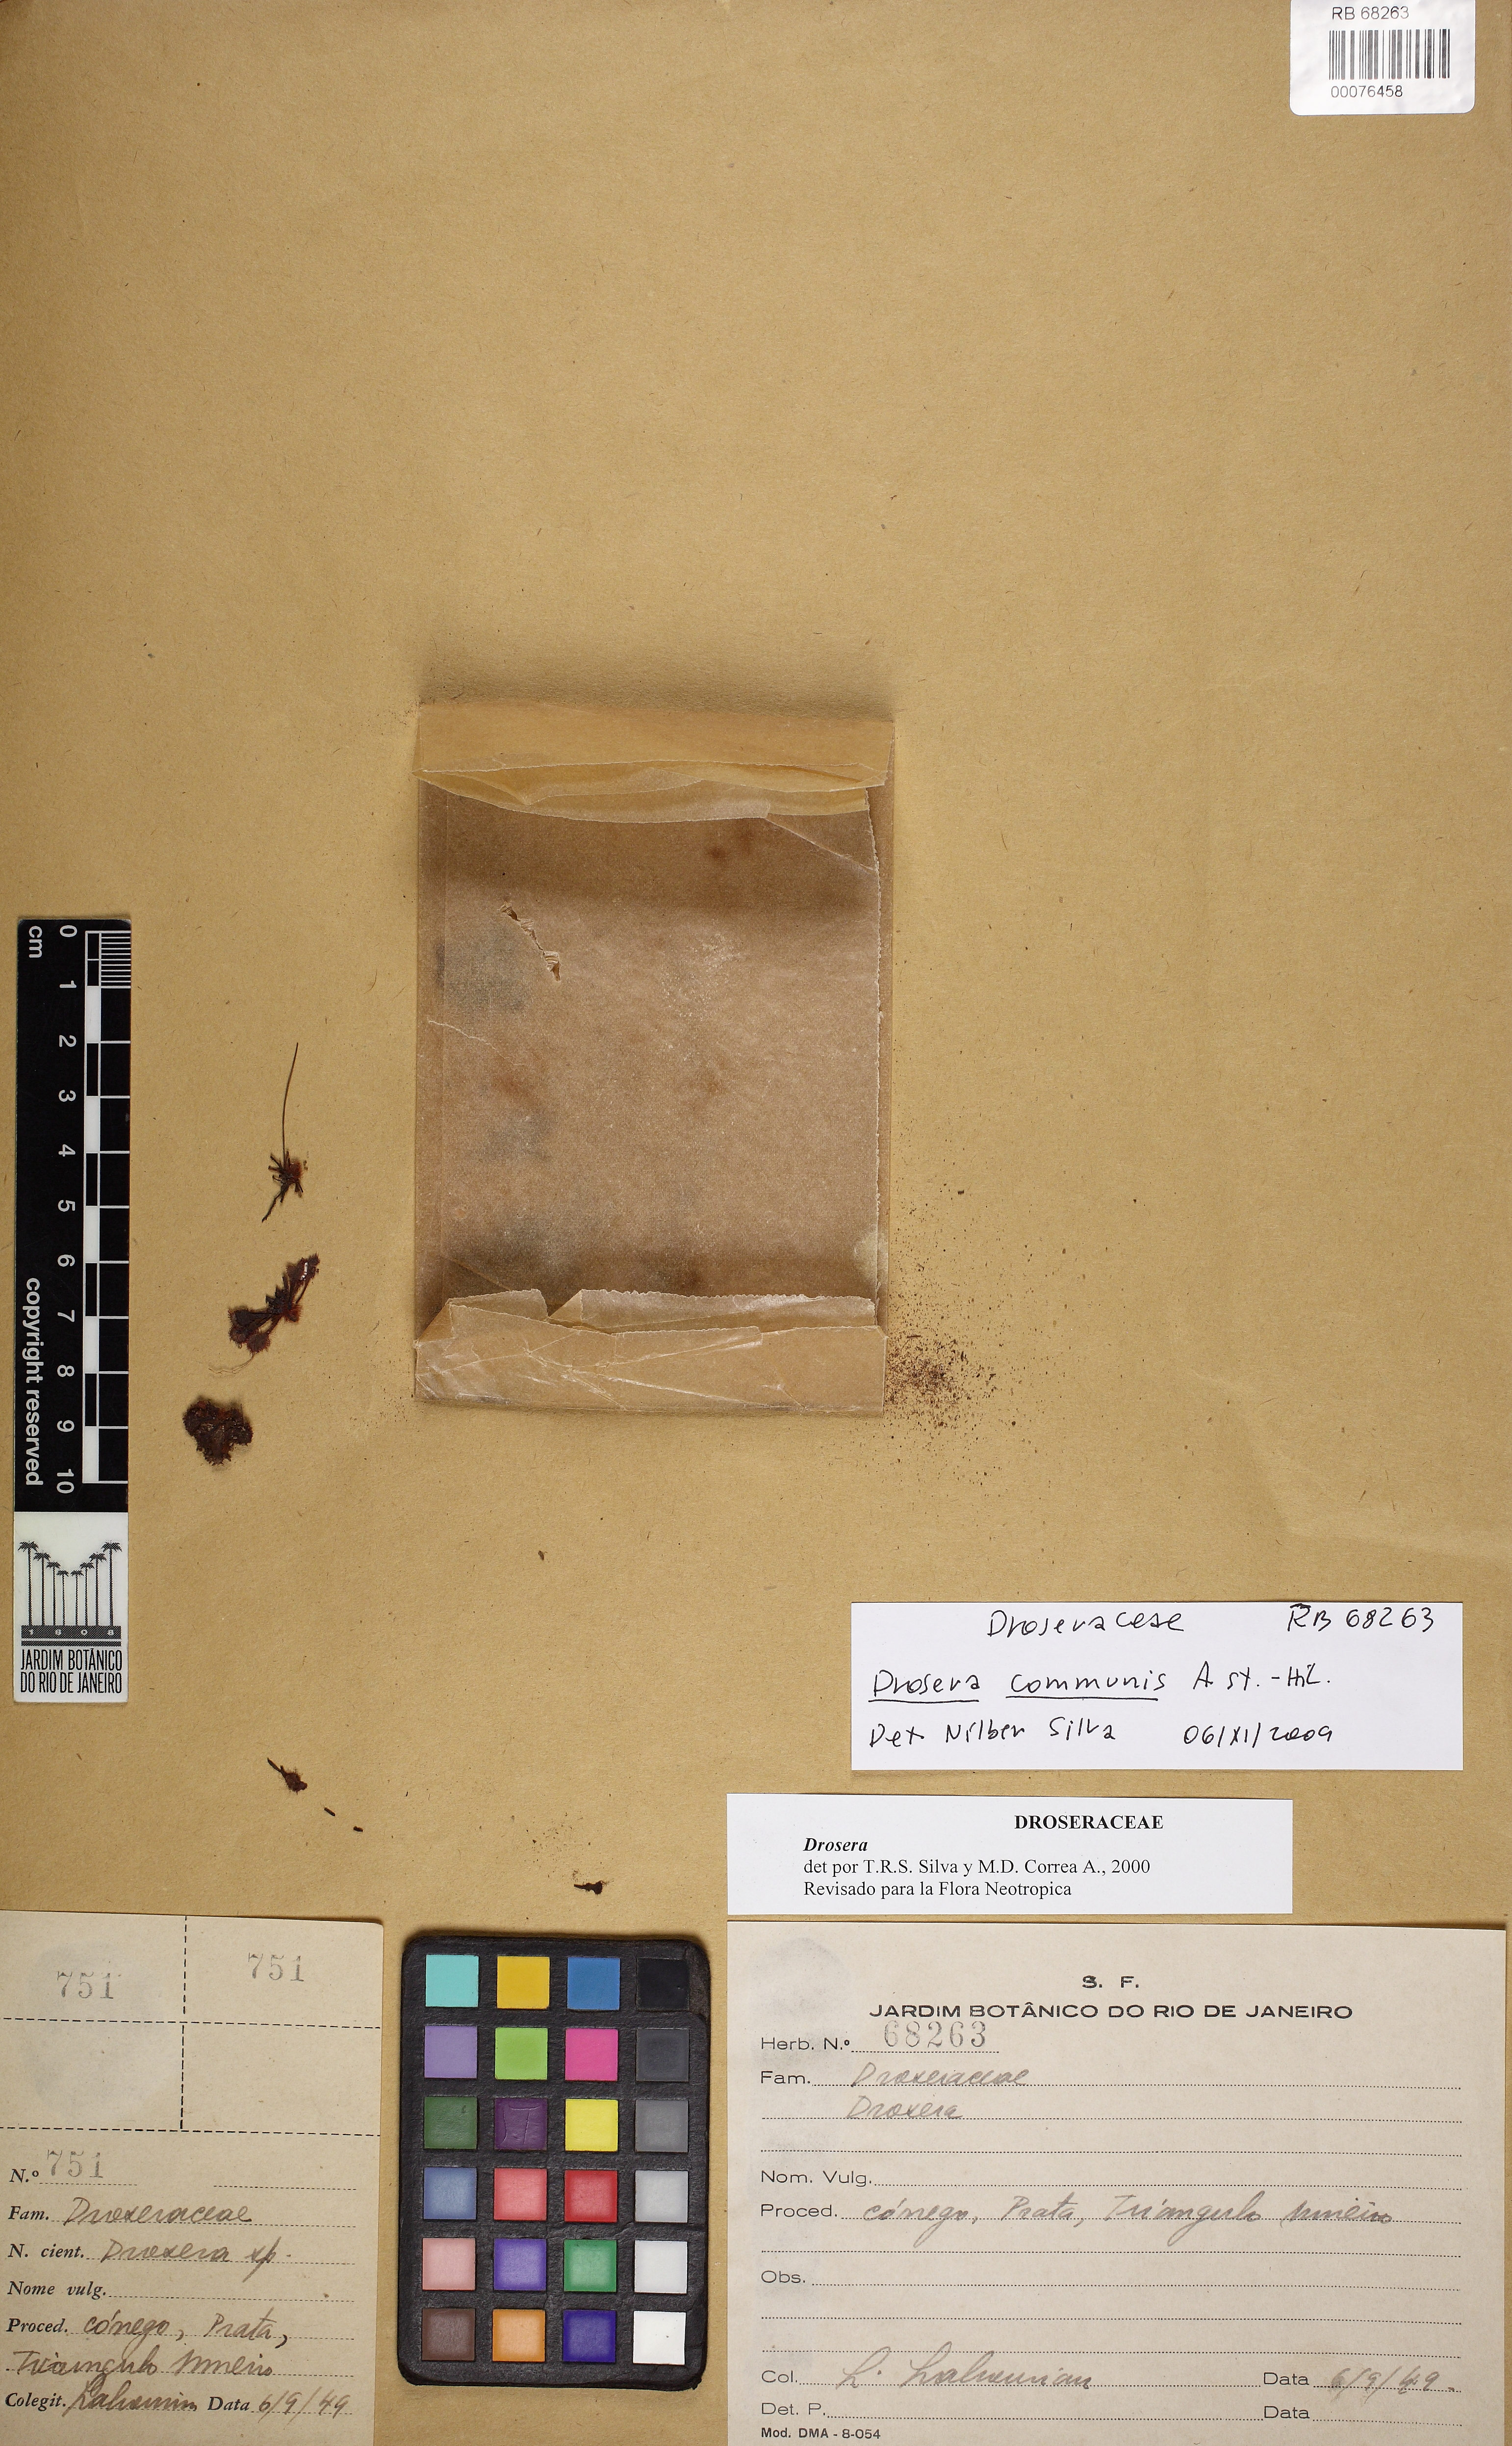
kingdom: Plantae
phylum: Tracheophyta
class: Magnoliopsida
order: Caryophyllales
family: Droseraceae
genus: Drosera
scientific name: Drosera communis
